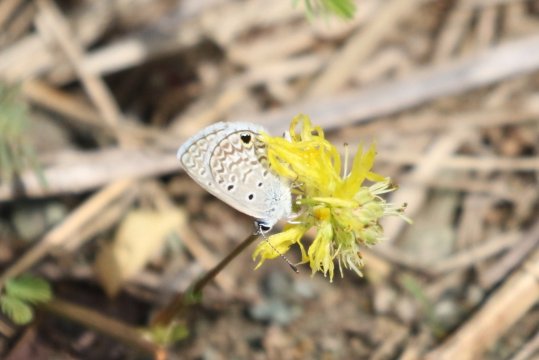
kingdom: Animalia
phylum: Arthropoda
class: Insecta
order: Lepidoptera
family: Lycaenidae
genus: Hemiargus
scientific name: Hemiargus hanno
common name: Hanno Blue
